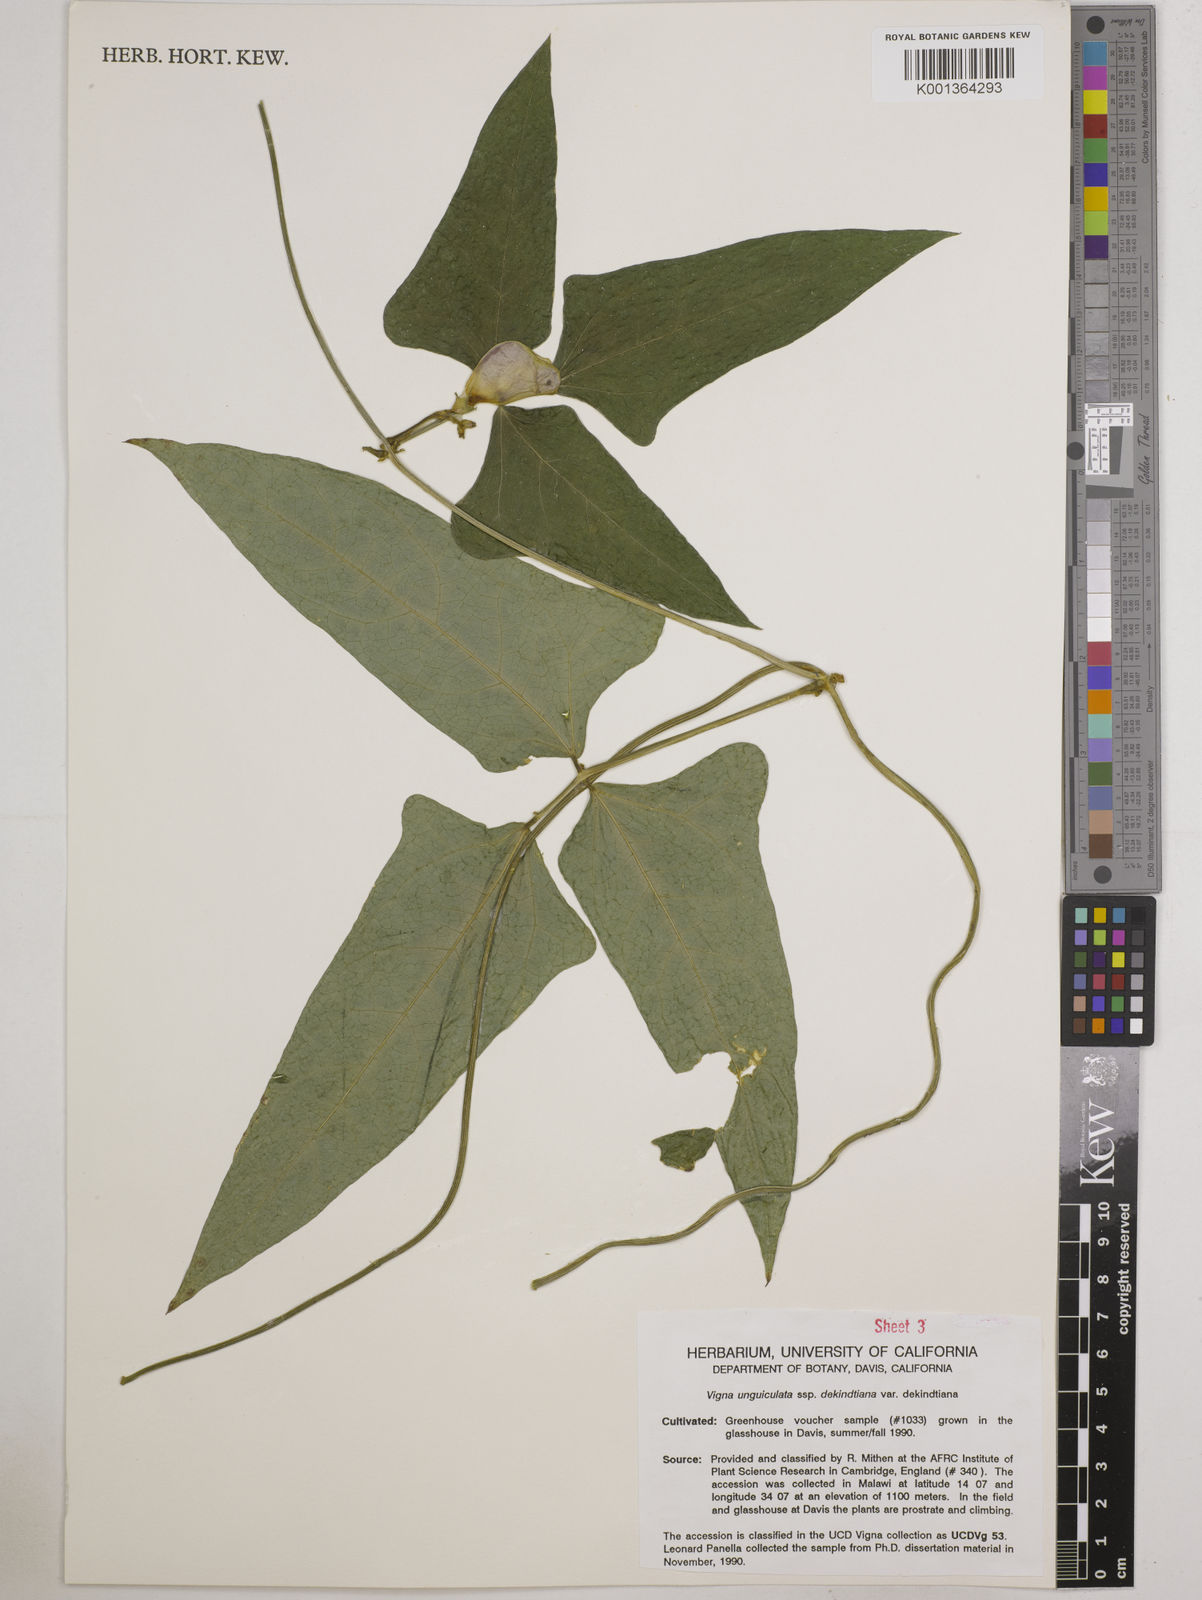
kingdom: Plantae
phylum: Tracheophyta
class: Magnoliopsida
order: Fabales
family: Fabaceae
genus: Vigna
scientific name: Vigna
